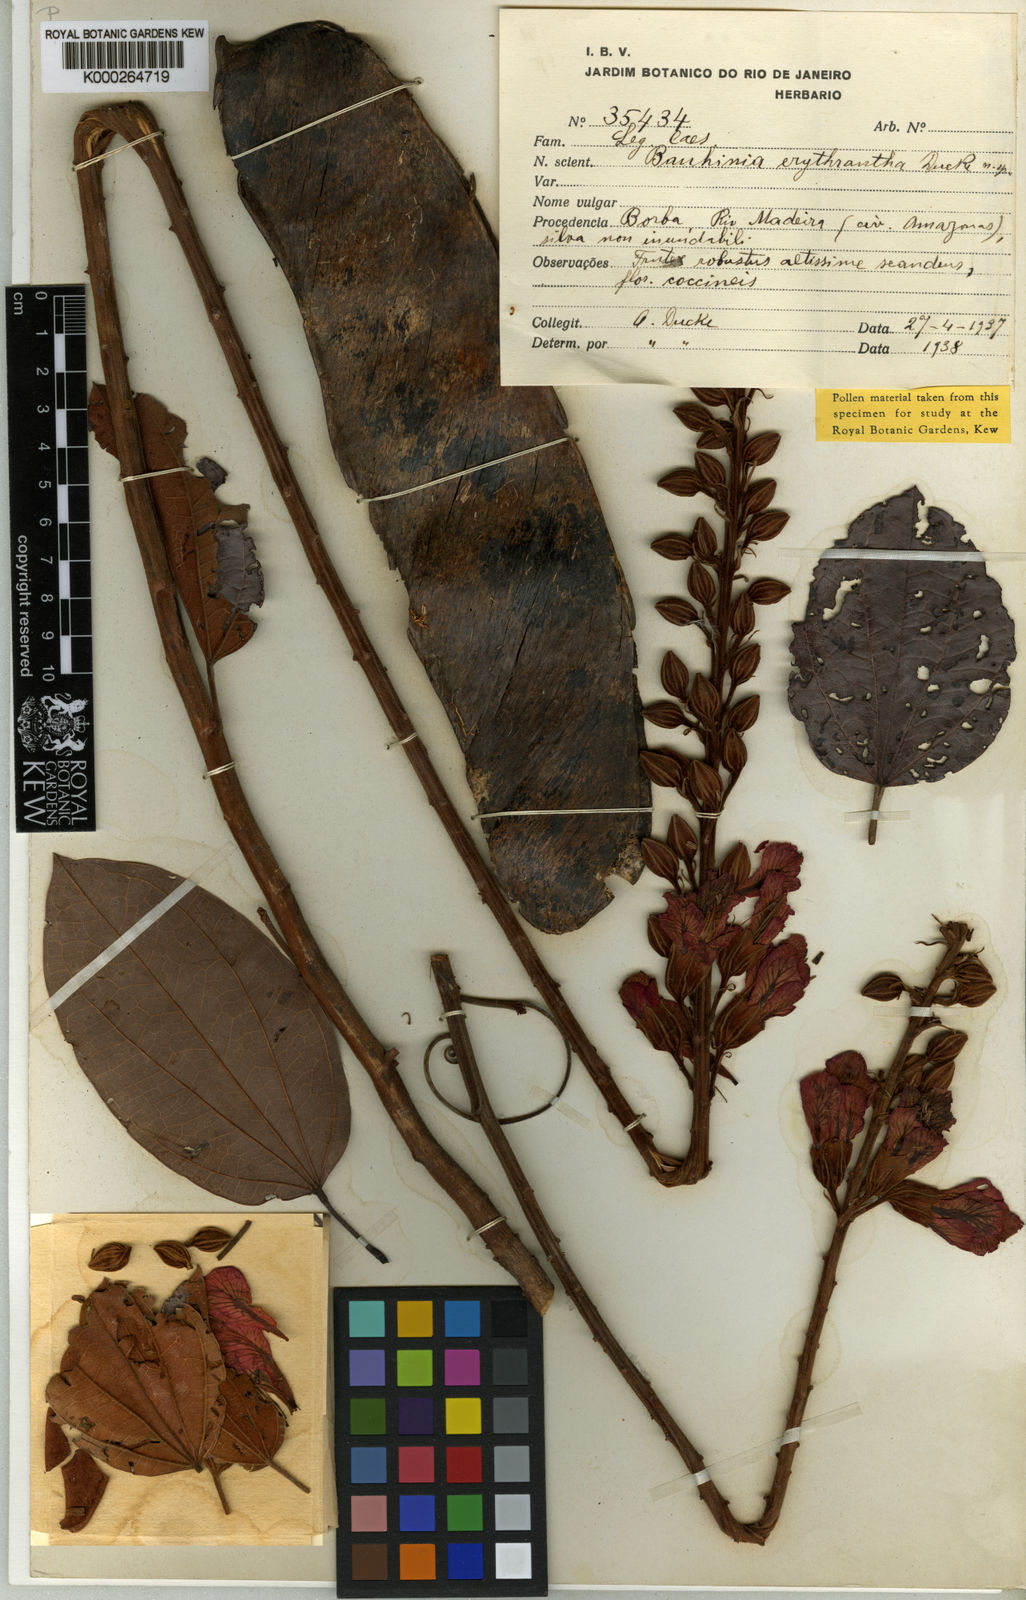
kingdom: Plantae
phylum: Tracheophyta
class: Magnoliopsida
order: Fabales
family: Fabaceae
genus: Schnella
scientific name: Schnella erythrantha
